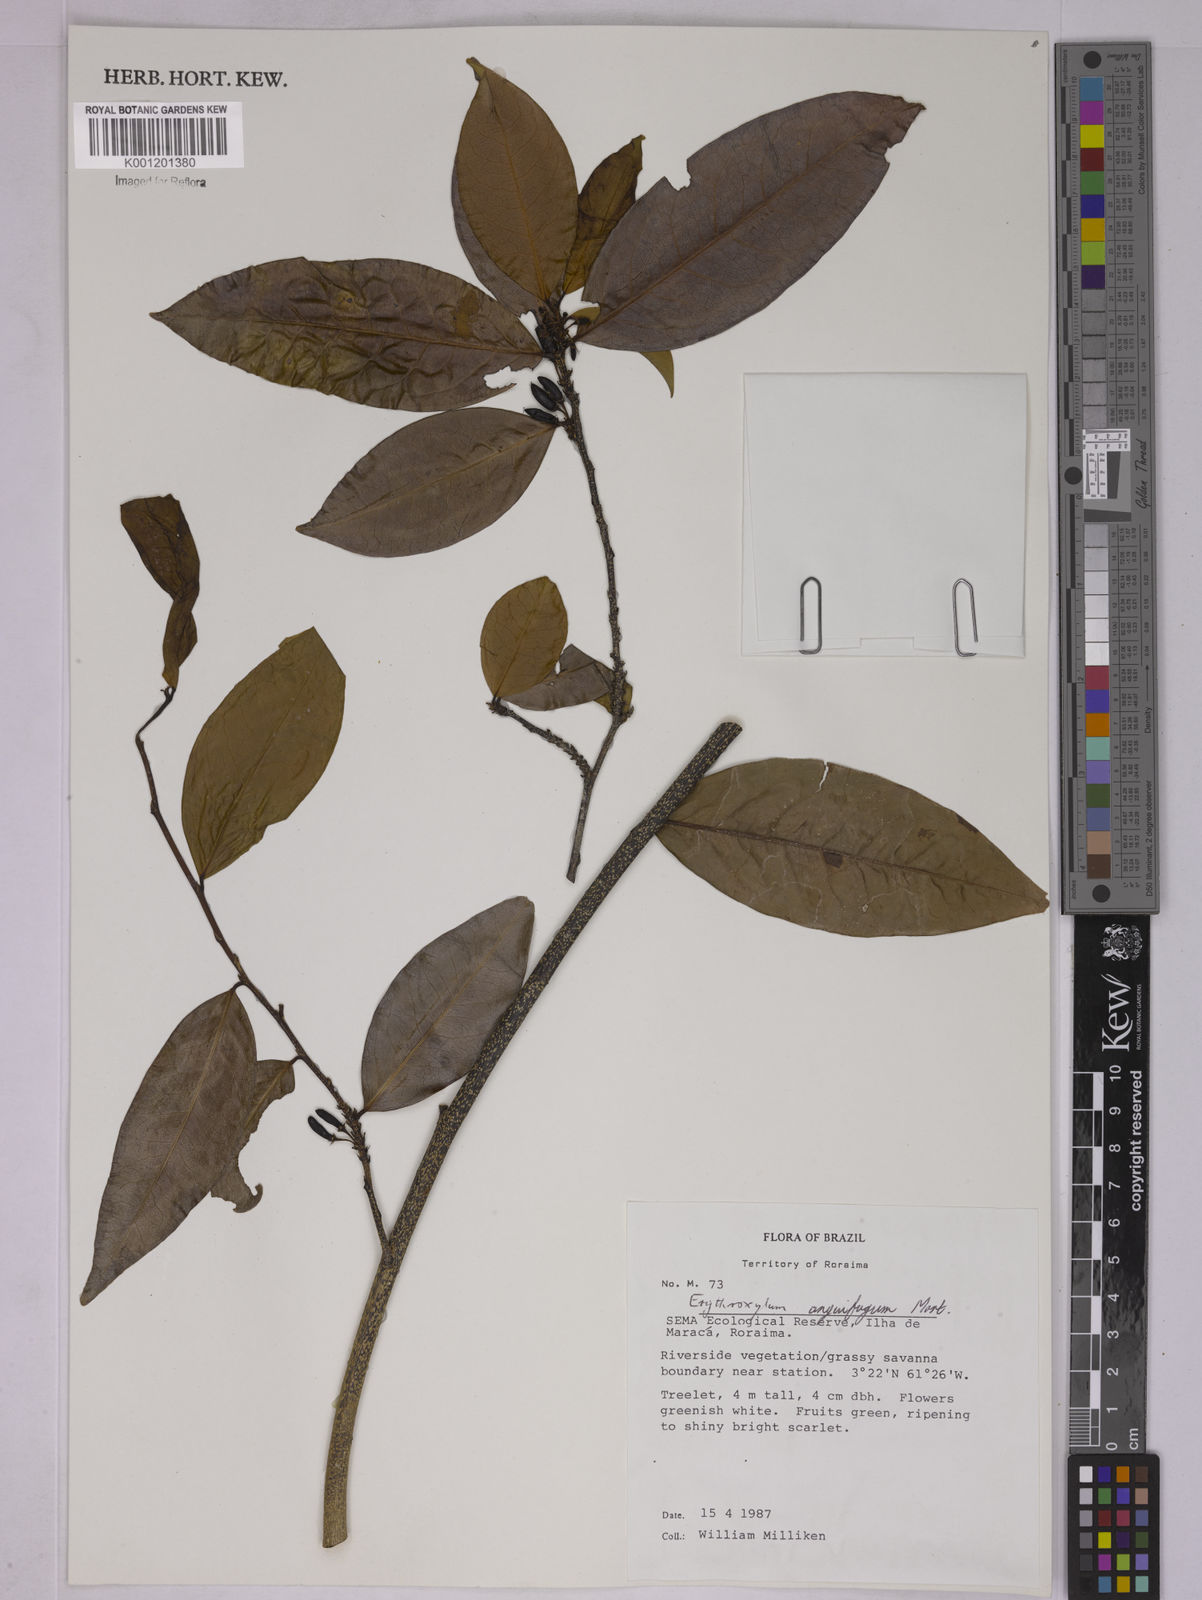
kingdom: Plantae
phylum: Tracheophyta
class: Magnoliopsida
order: Malpighiales
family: Erythroxylaceae
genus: Erythroxylum
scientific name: Erythroxylum anguifugum
